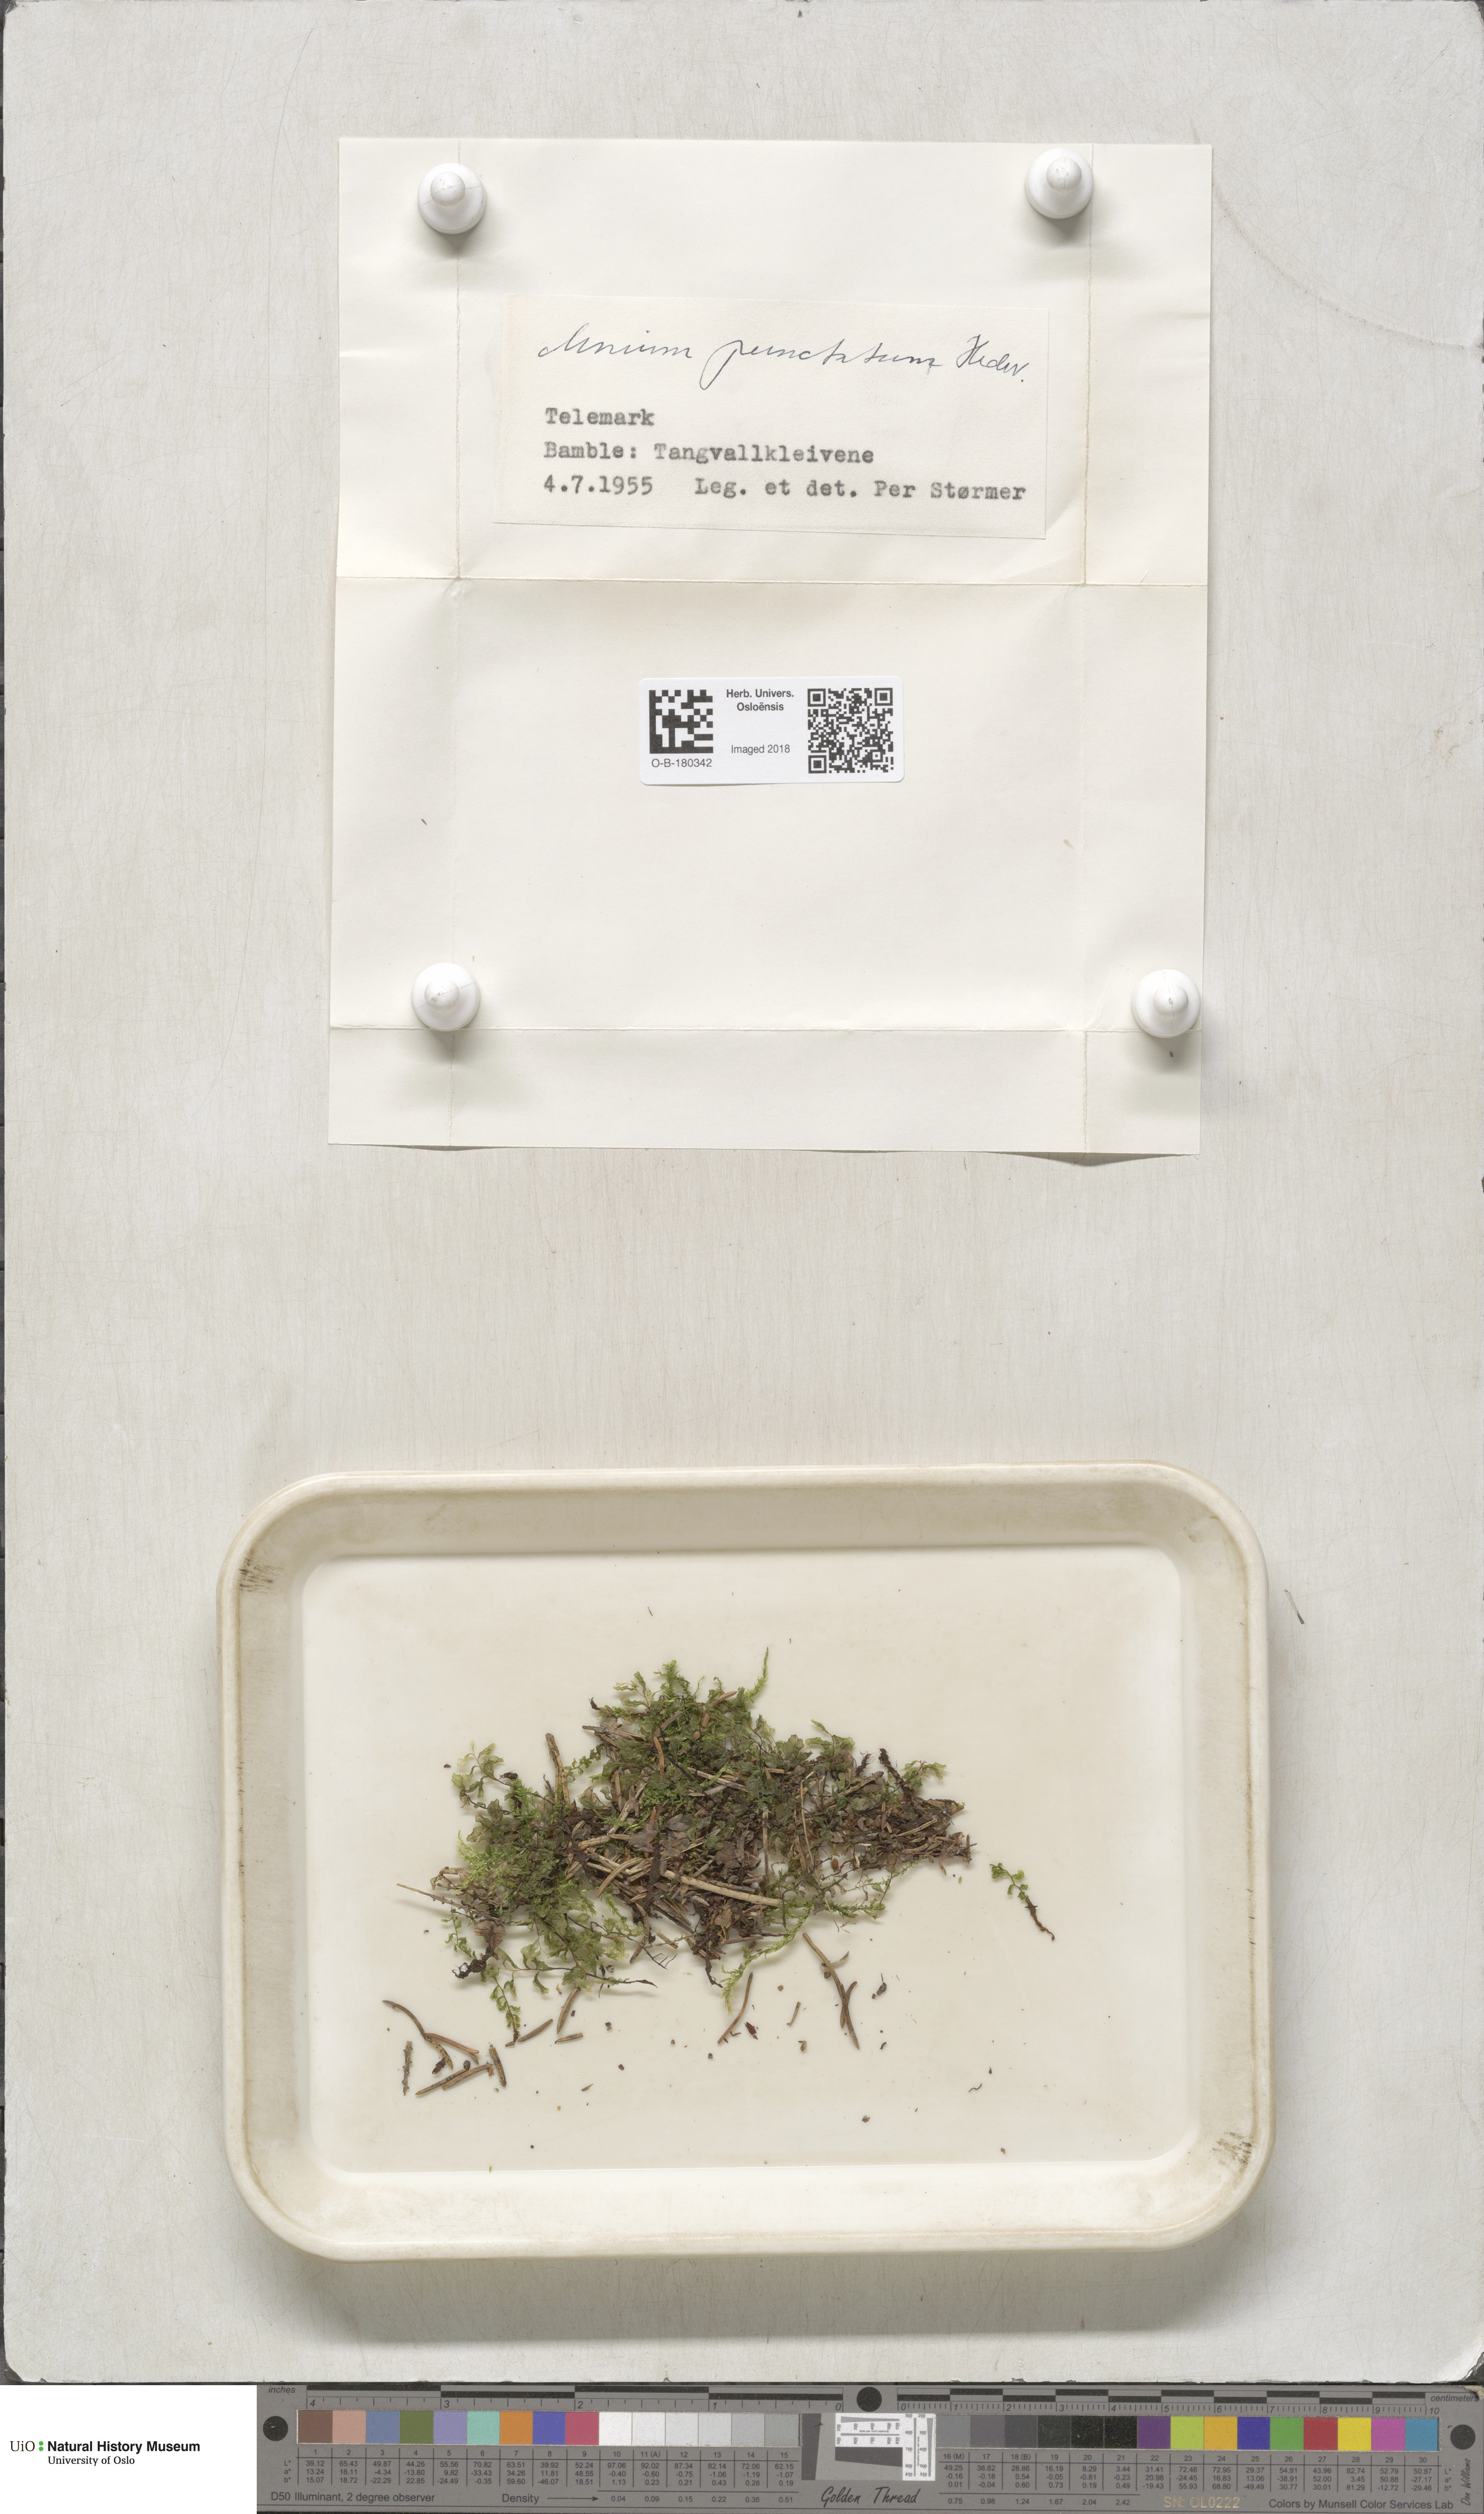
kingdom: Plantae
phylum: Bryophyta
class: Bryopsida
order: Bryales
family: Mniaceae
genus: Rhizomnium
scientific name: Rhizomnium punctatum
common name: Dotted leafy moss
